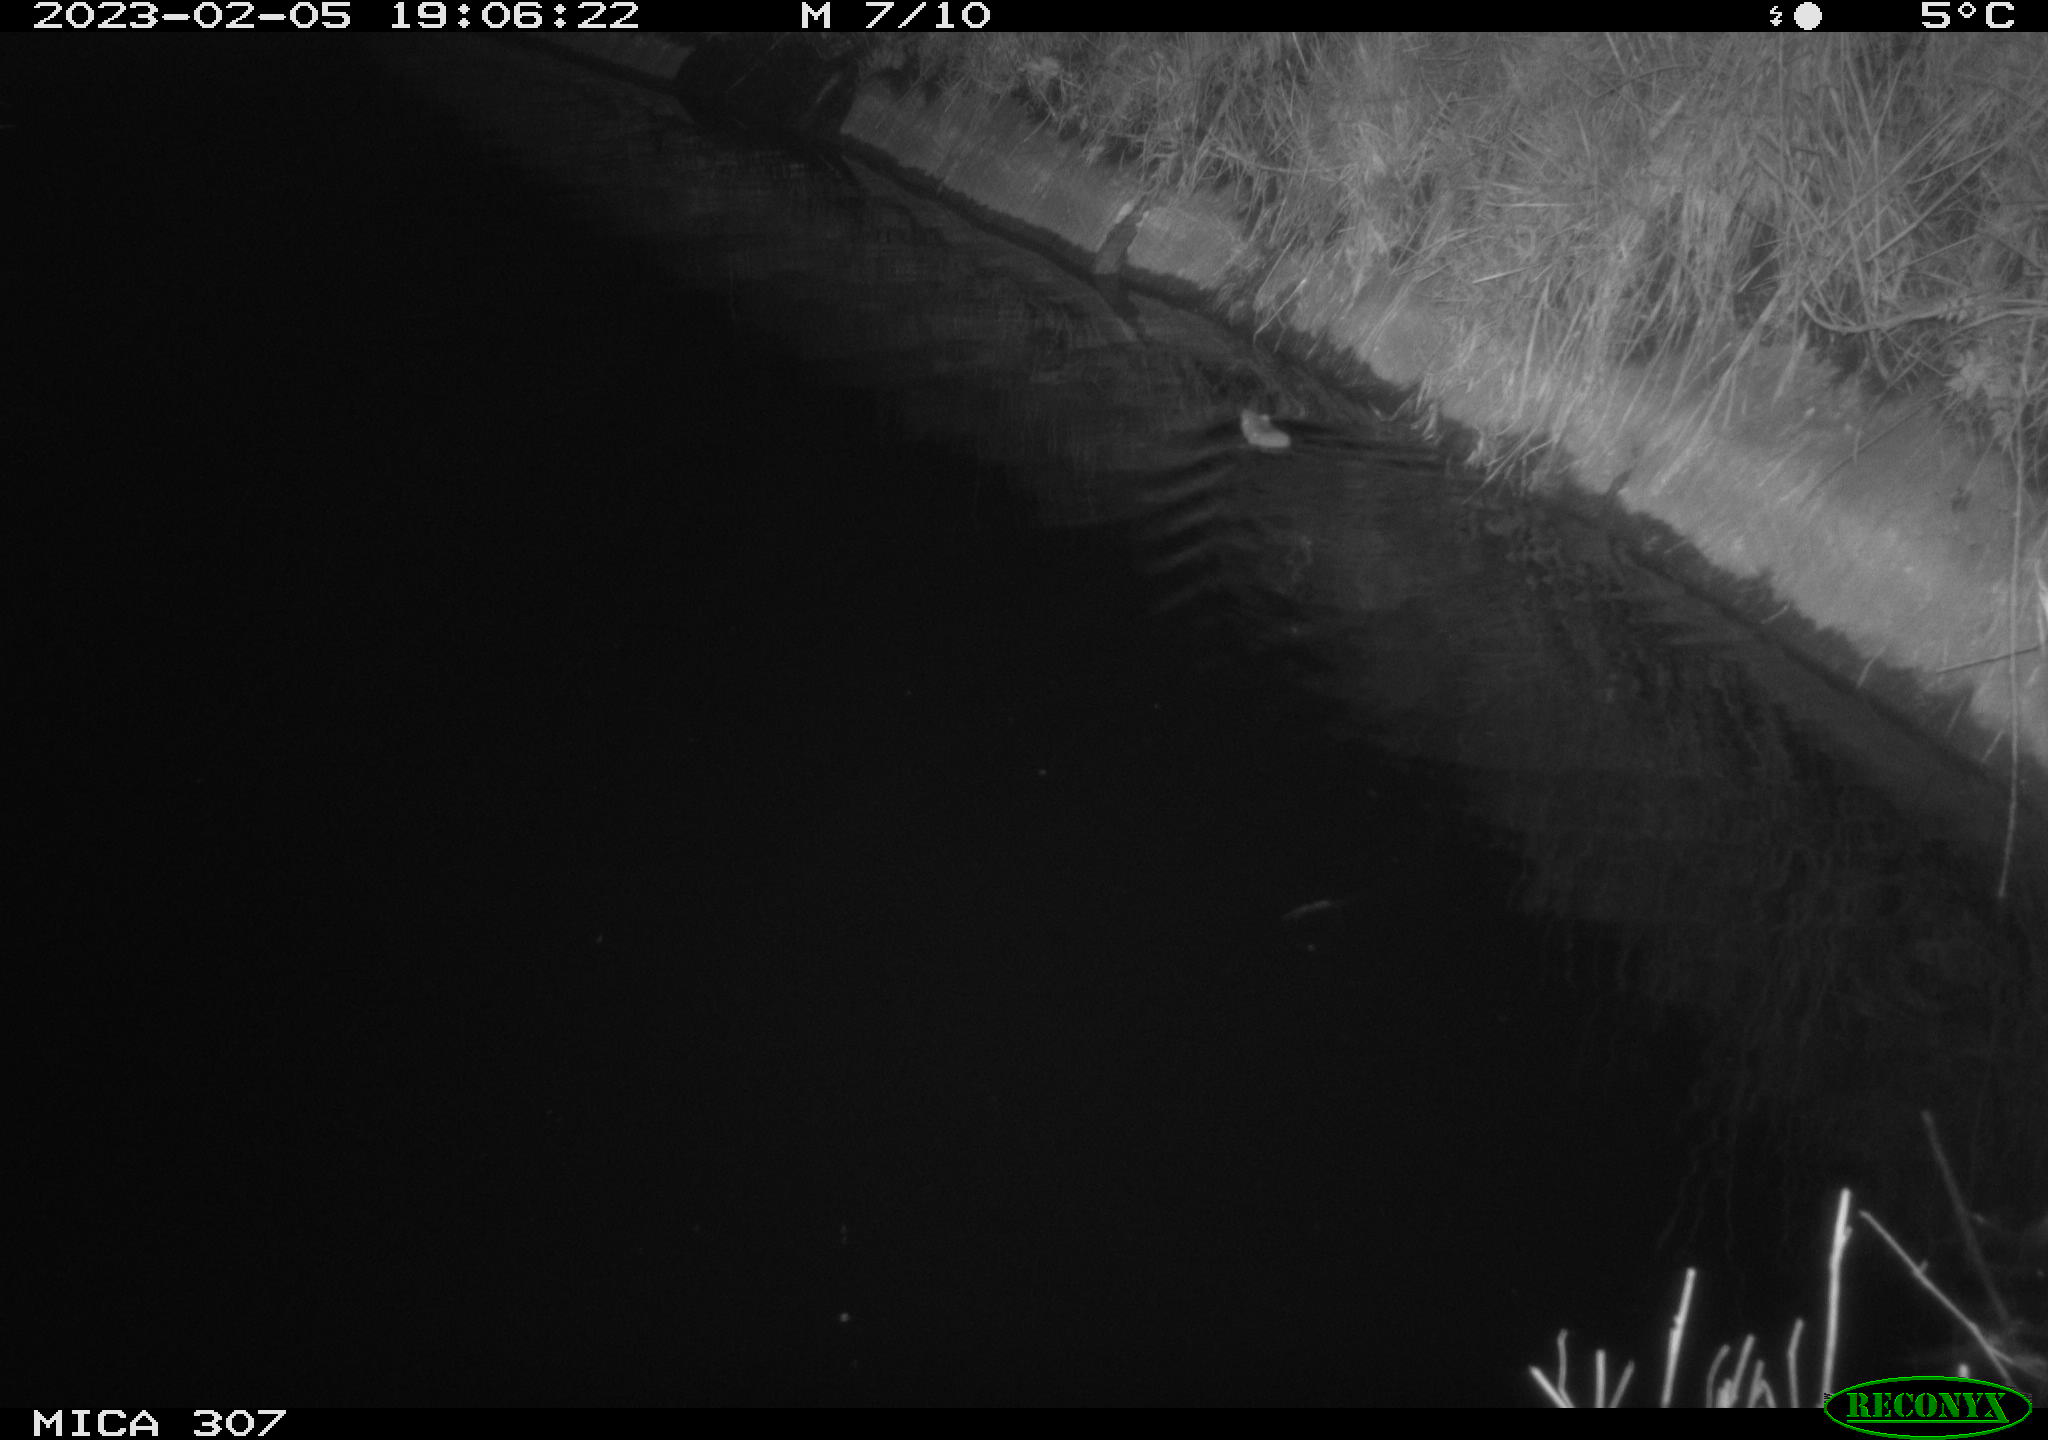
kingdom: Animalia
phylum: Chordata
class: Mammalia
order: Rodentia
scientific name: Rodentia
